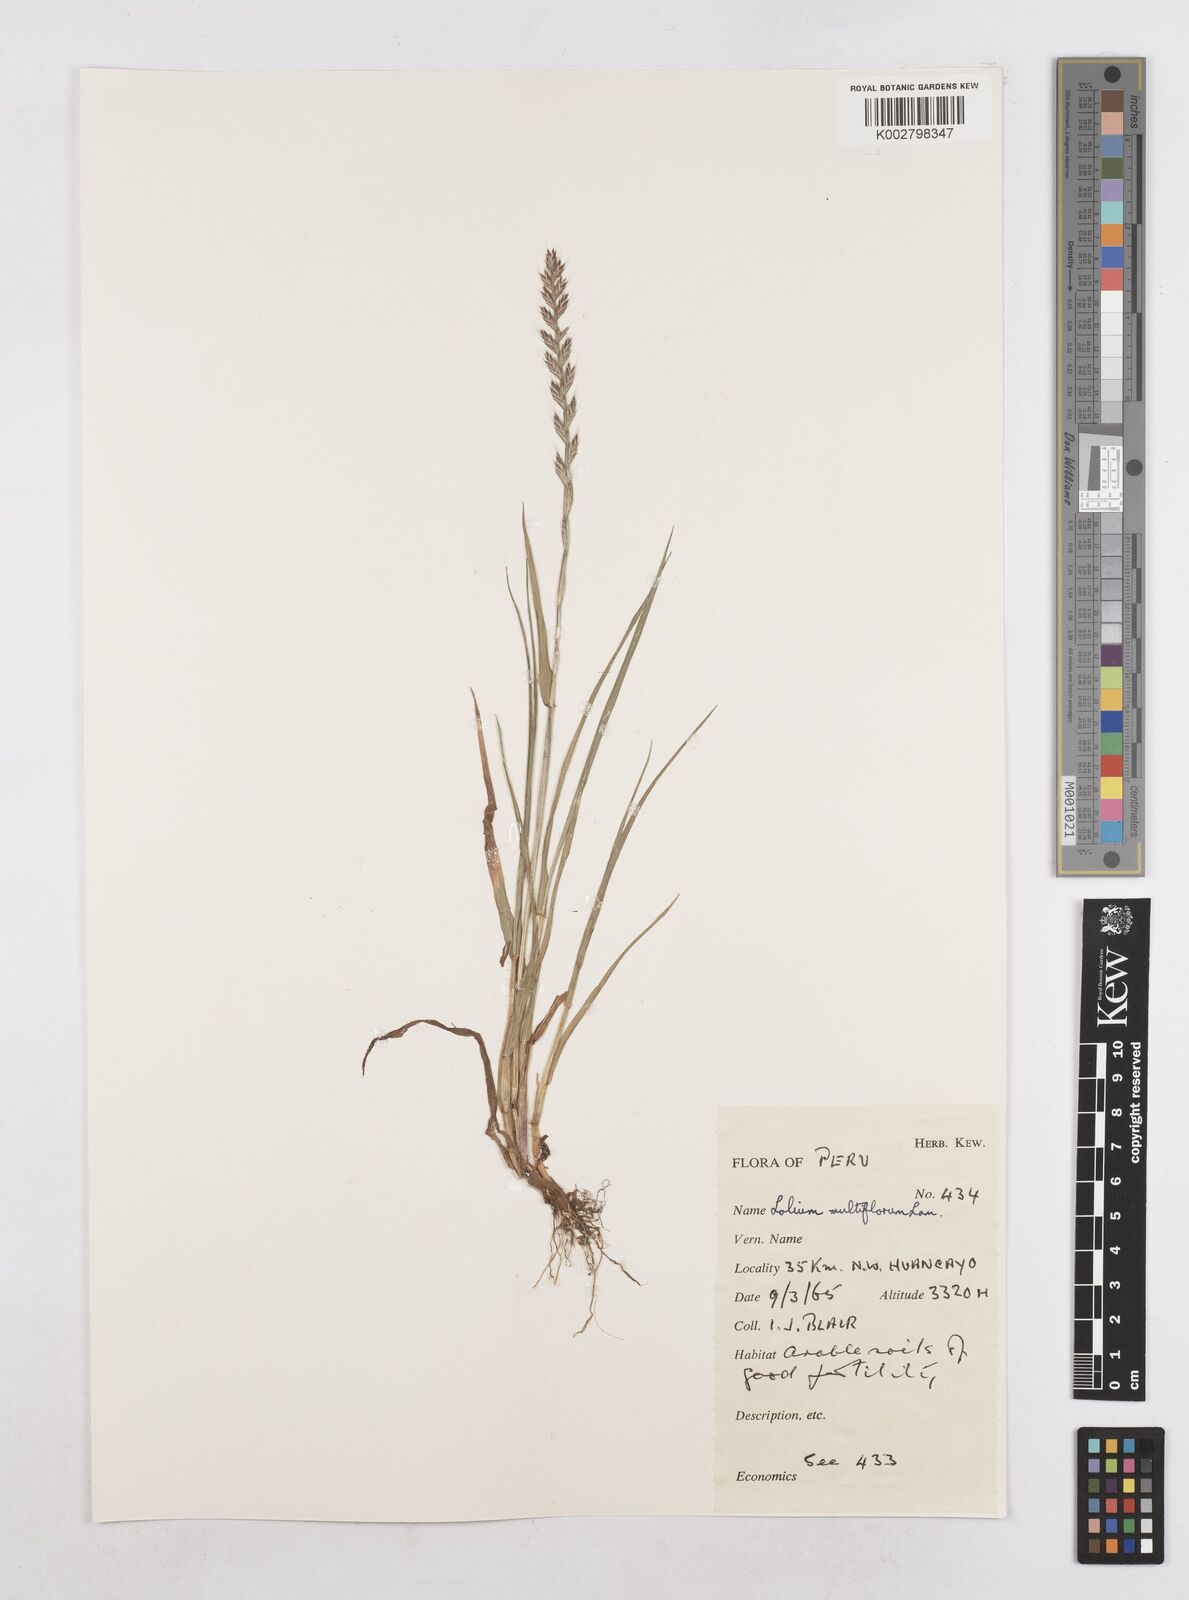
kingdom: Plantae
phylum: Tracheophyta
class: Liliopsida
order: Poales
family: Poaceae
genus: Lolium
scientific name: Lolium multiflorum
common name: Annual ryegrass
